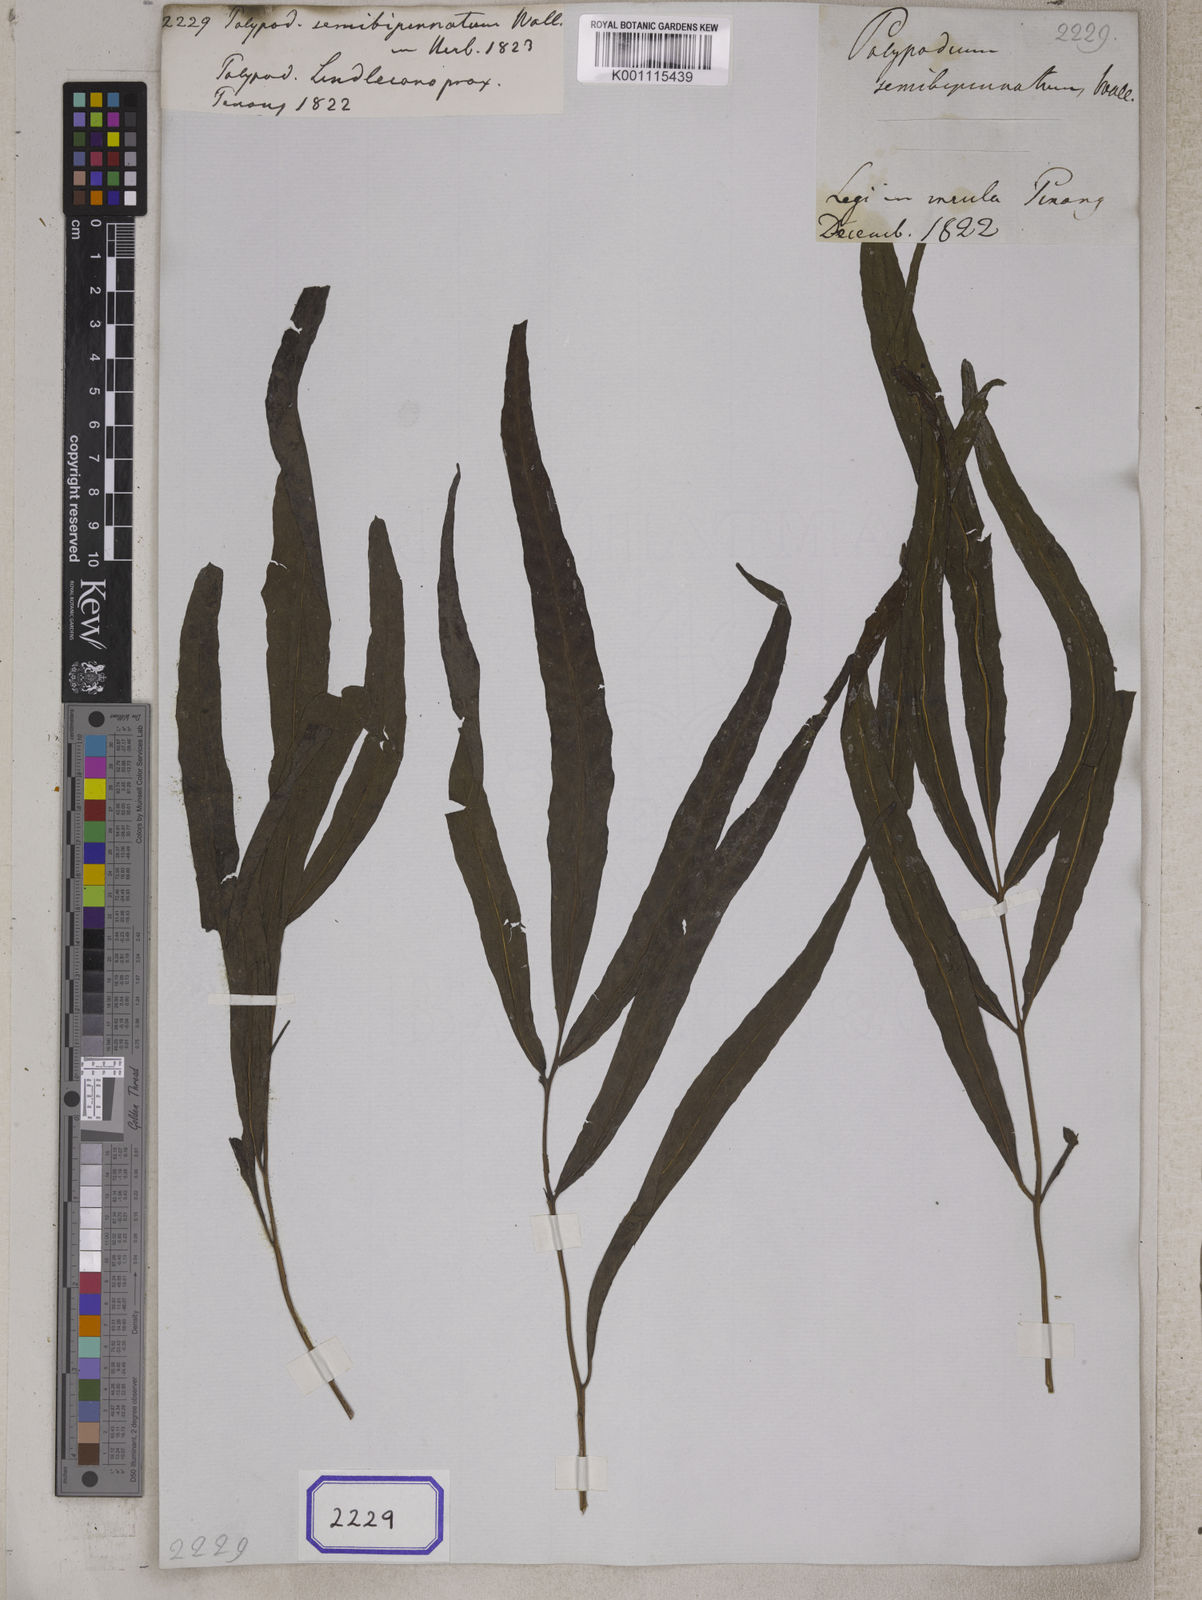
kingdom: Plantae
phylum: Tracheophyta
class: Polypodiopsida
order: Polypodiales
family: Tectariaceae
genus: Tectaria
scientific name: Tectaria semibipinnata
